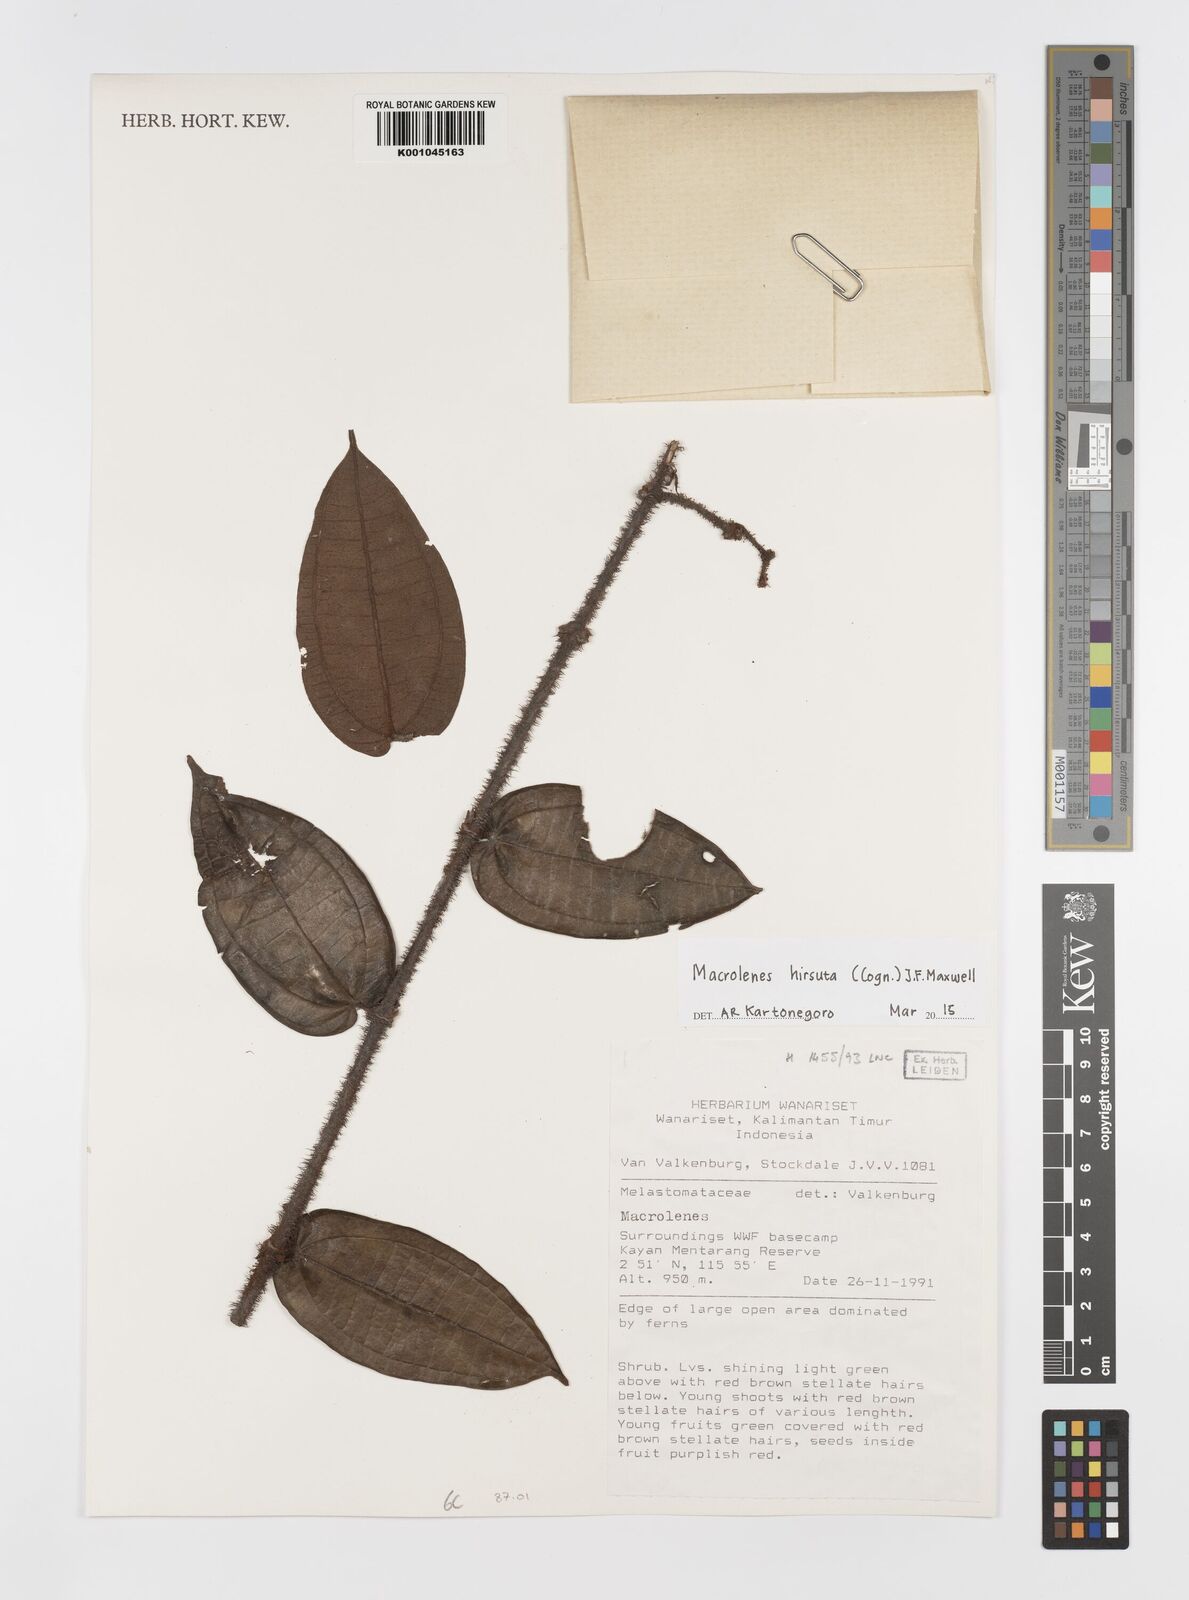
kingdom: Plantae
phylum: Tracheophyta
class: Magnoliopsida
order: Myrtales
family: Melastomataceae
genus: Macrolenes
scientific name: Macrolenes hirsuta
